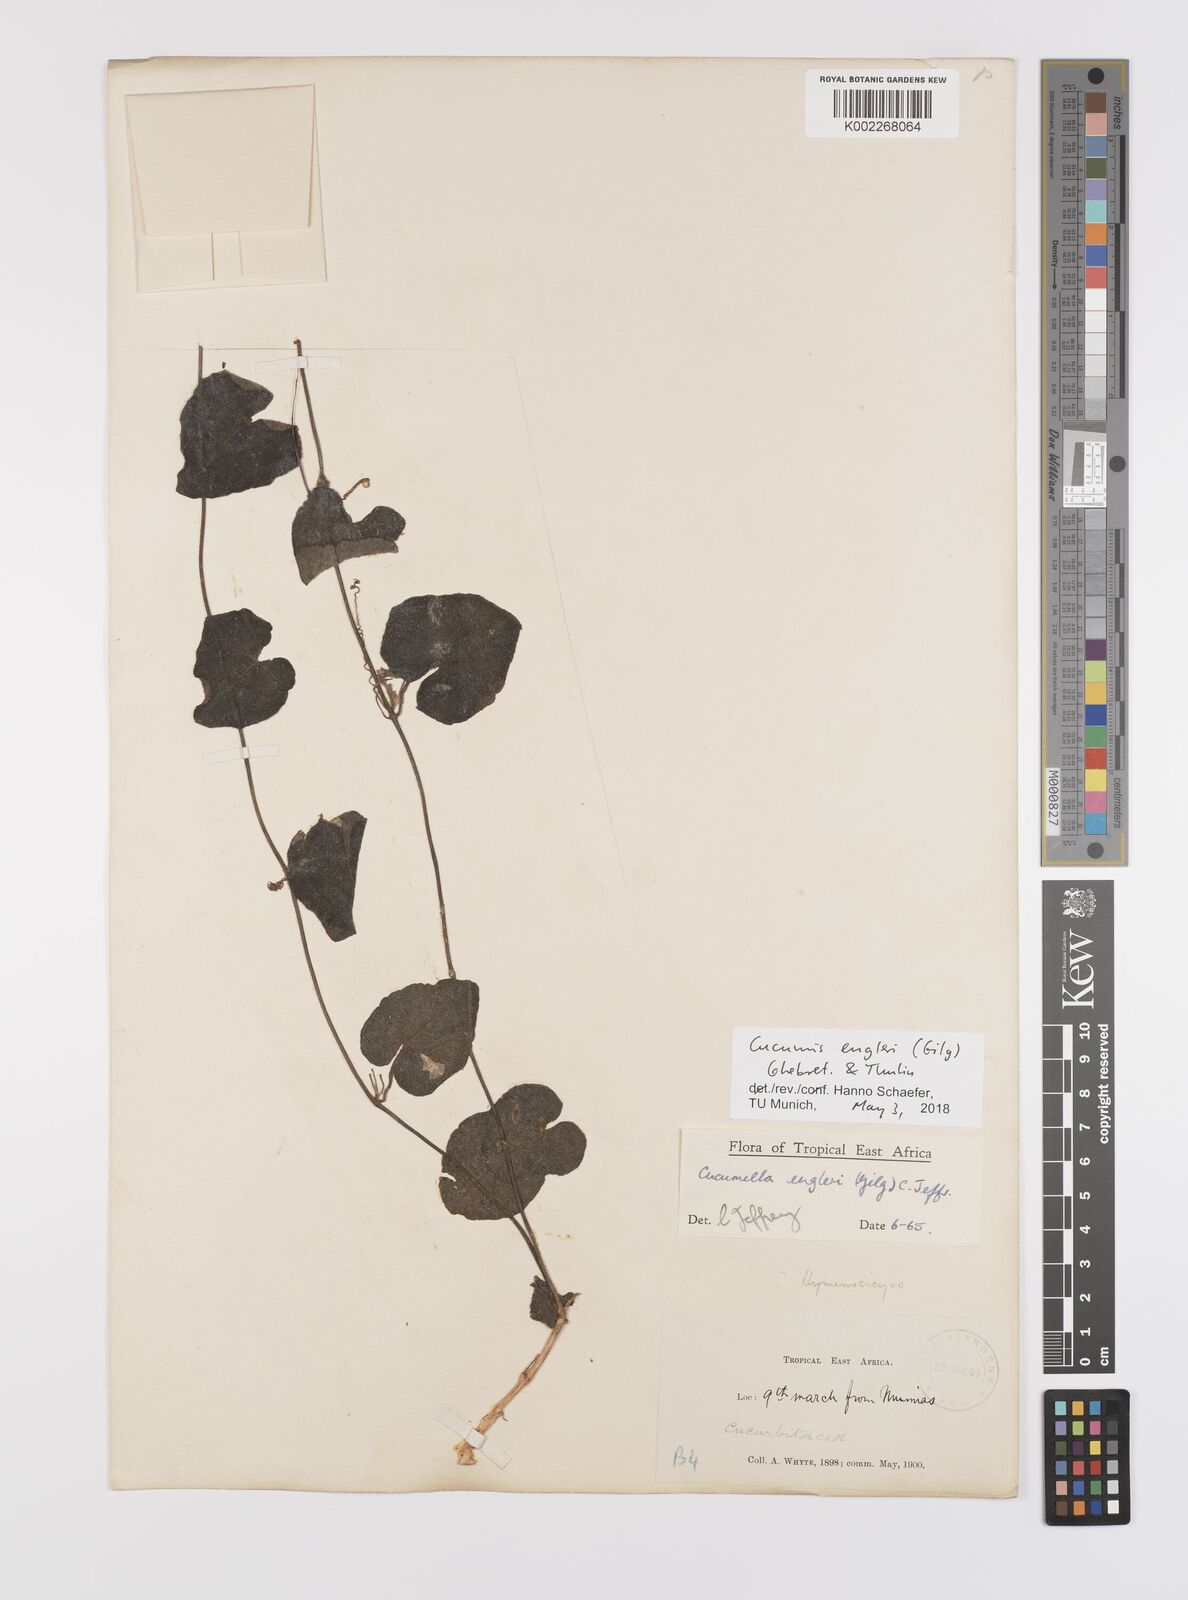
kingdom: Plantae
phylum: Tracheophyta
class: Magnoliopsida
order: Cucurbitales
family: Cucurbitaceae
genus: Cucumis
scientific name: Cucumis engleri
